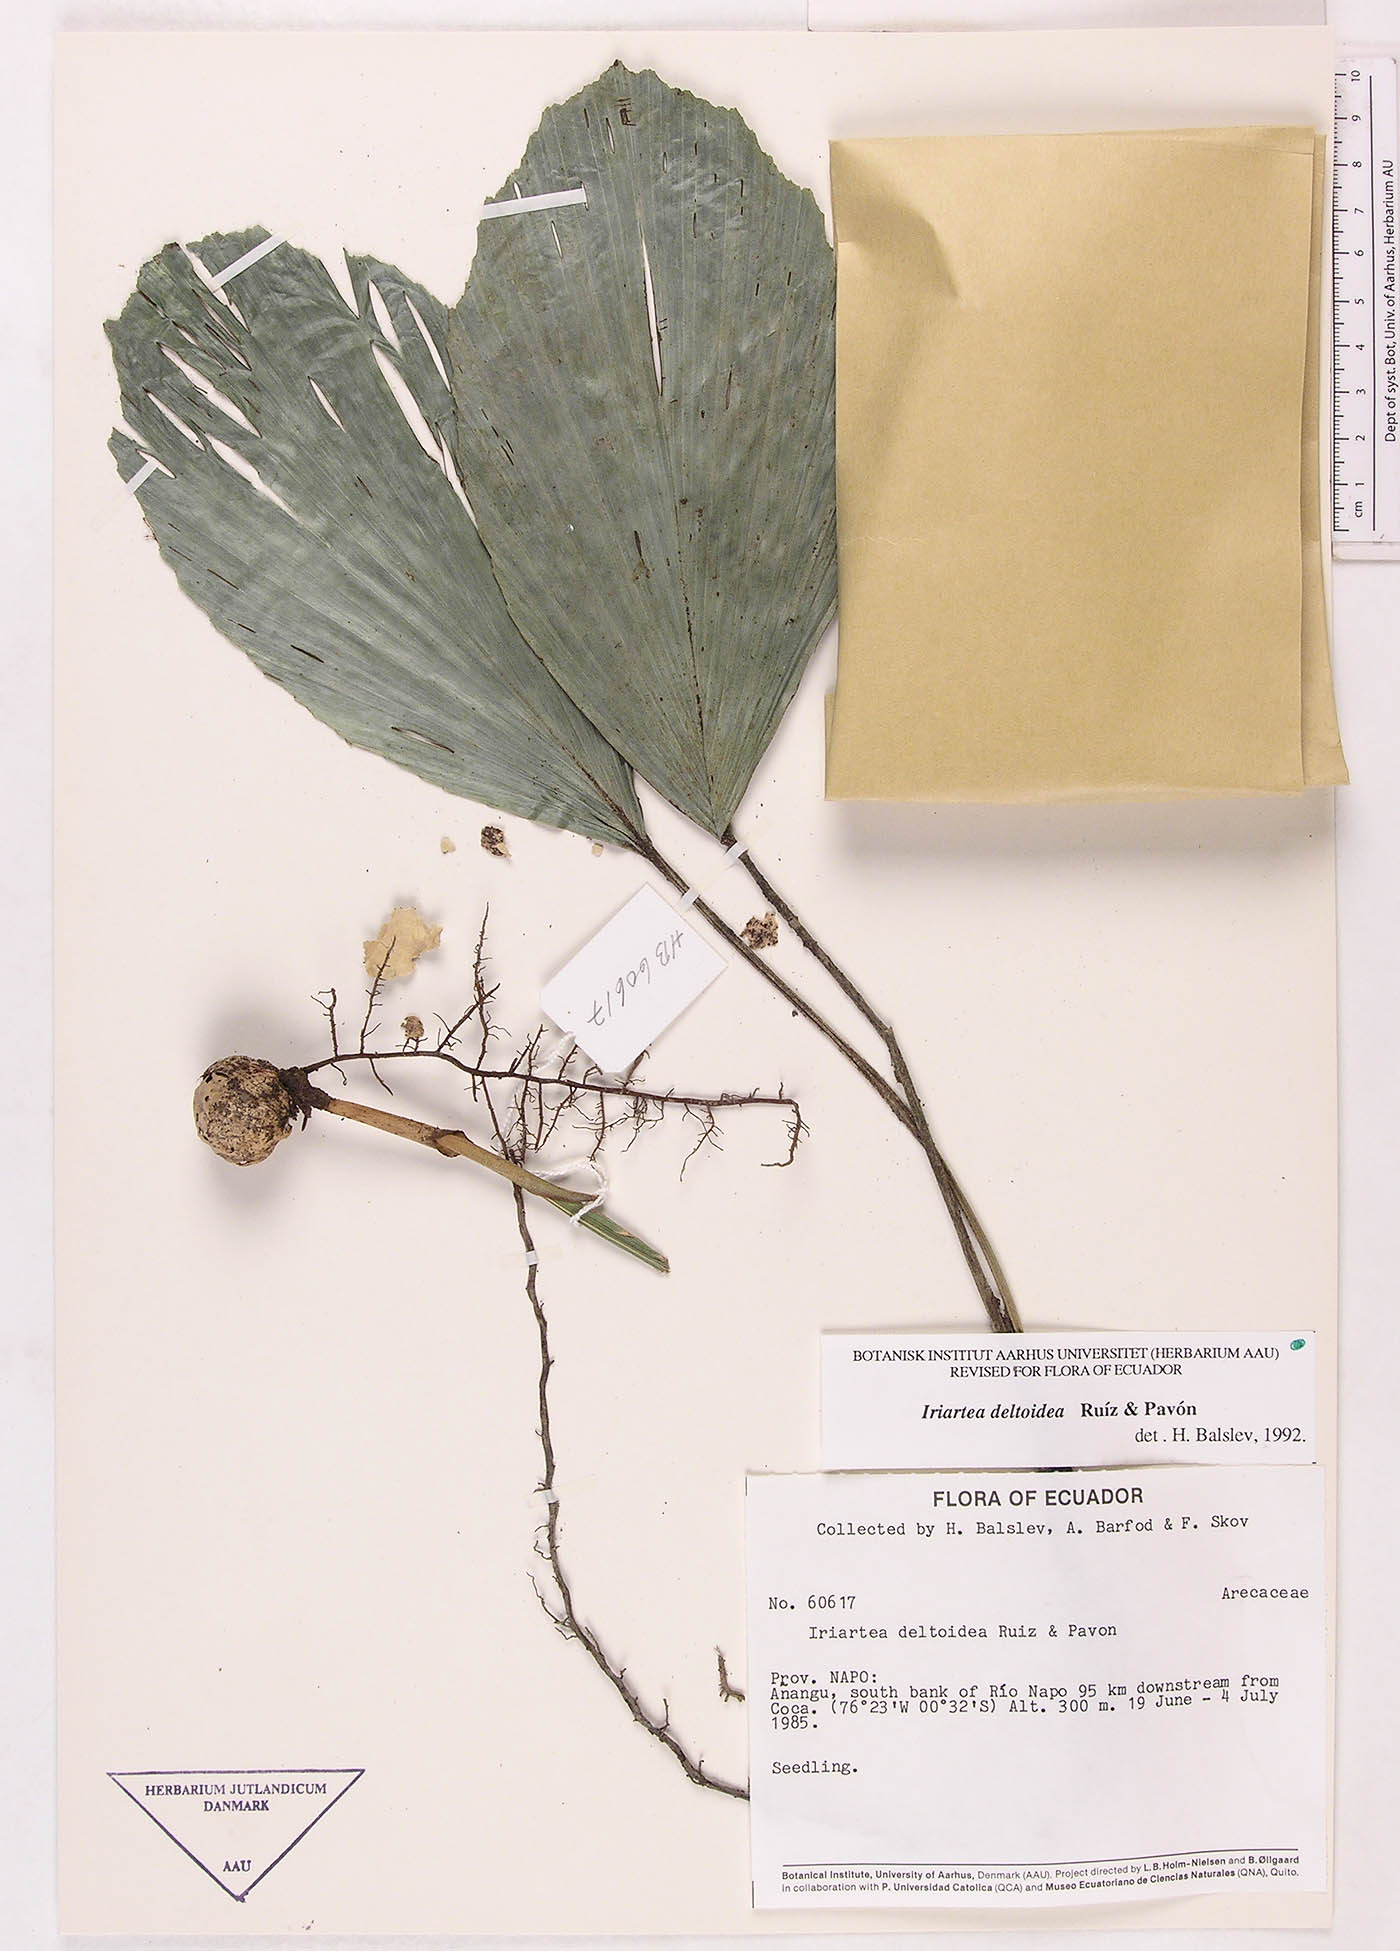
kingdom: Plantae
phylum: Tracheophyta
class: Liliopsida
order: Arecales
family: Arecaceae
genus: Iriartea
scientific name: Iriartea deltoidea
